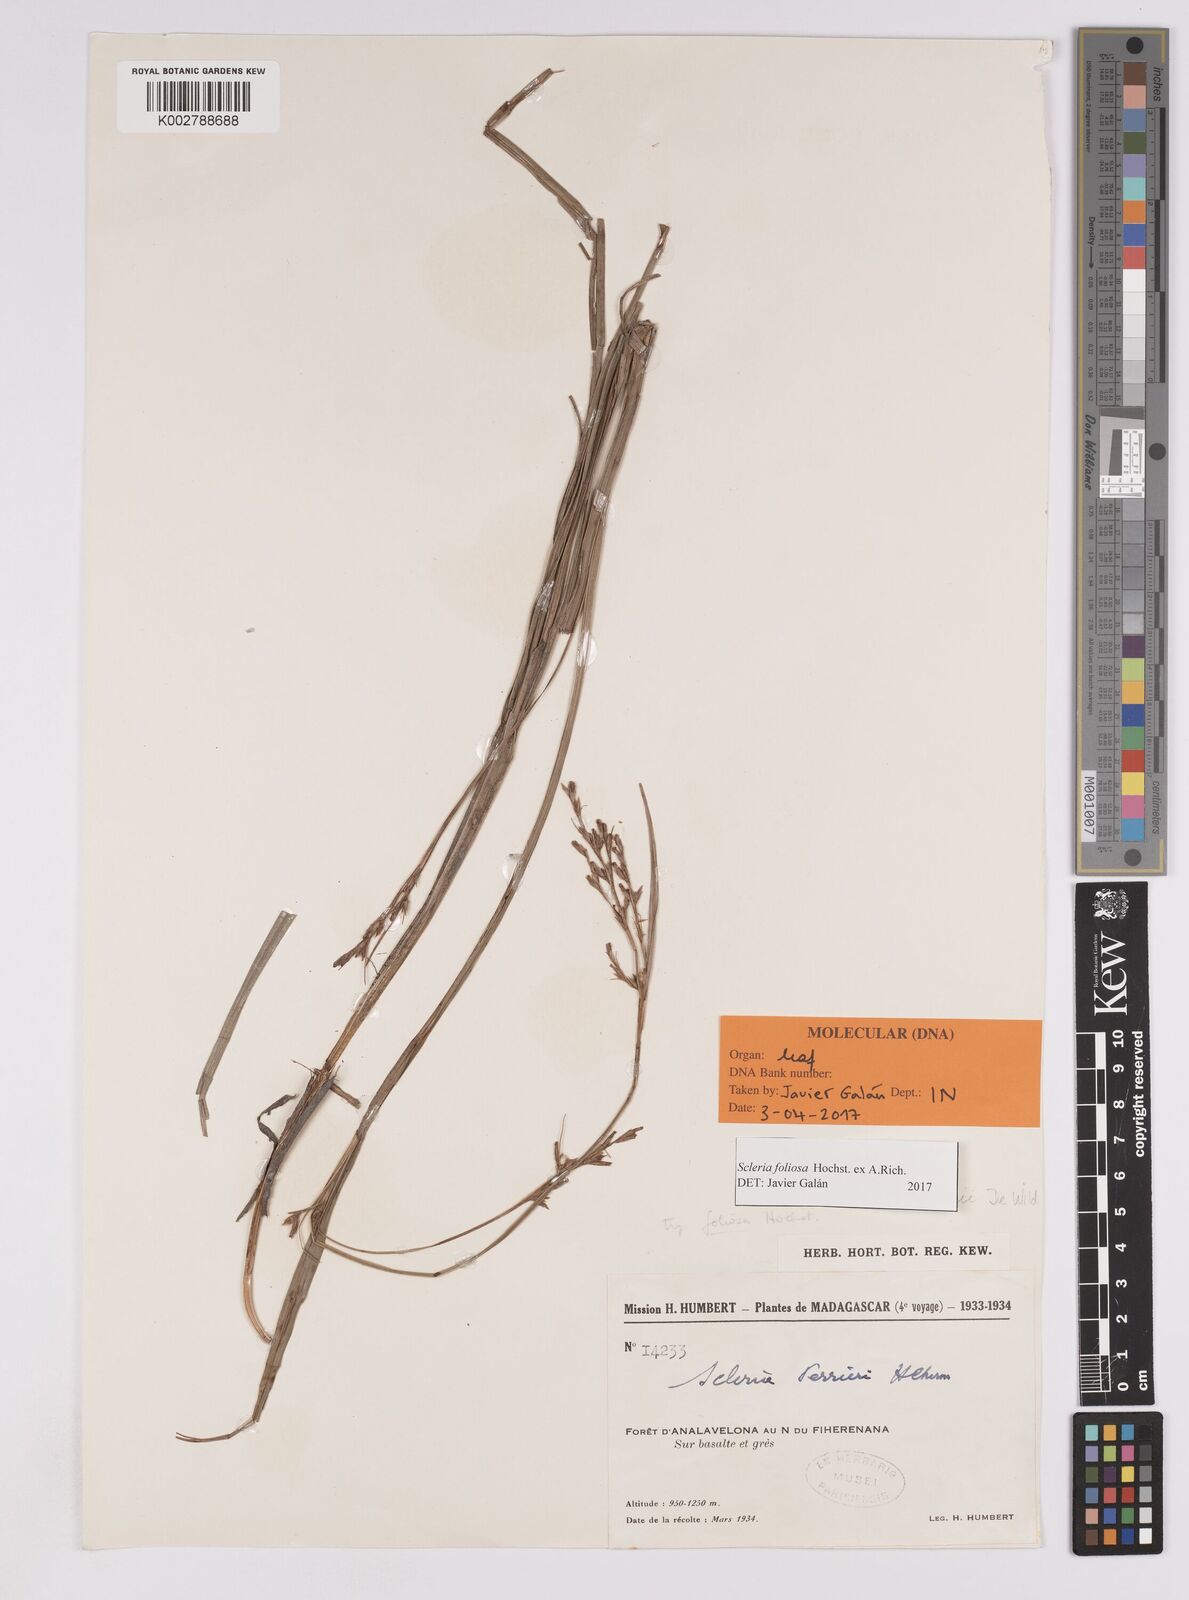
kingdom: Plantae
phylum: Tracheophyta
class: Liliopsida
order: Poales
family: Cyperaceae
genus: Scleria
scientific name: Scleria foliosa
